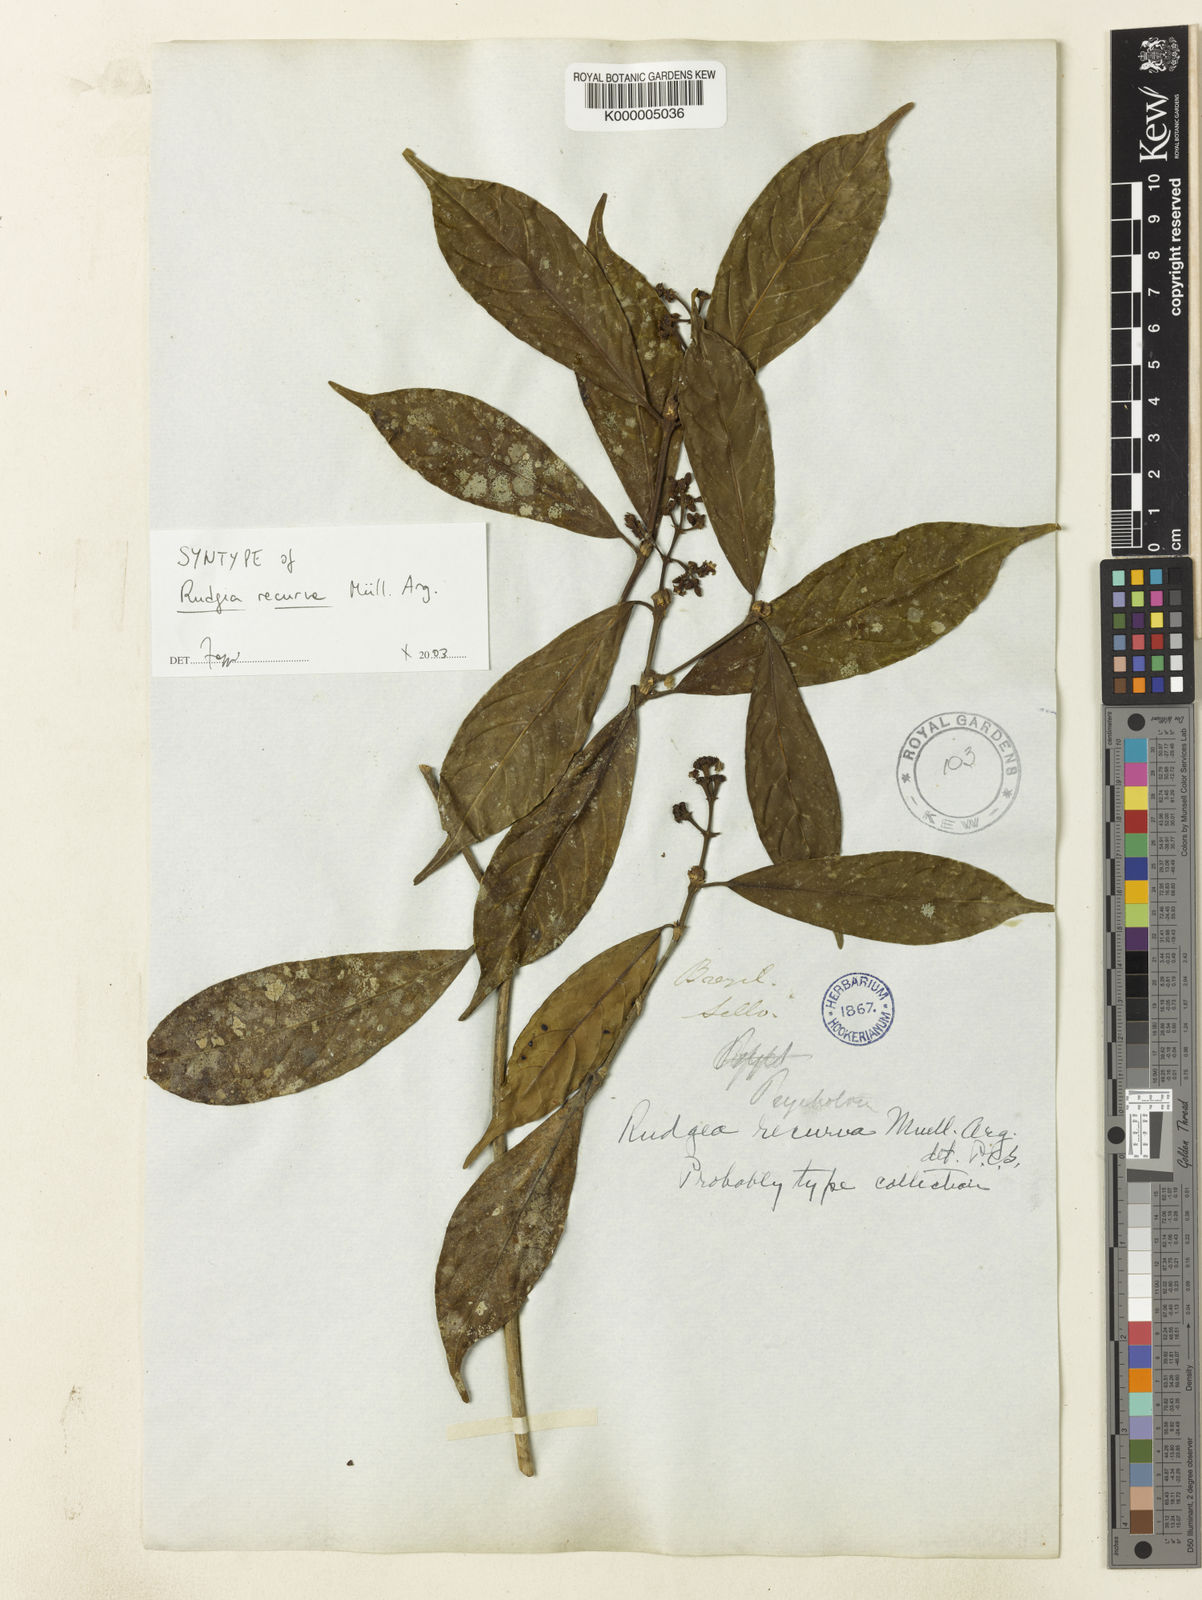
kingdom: Plantae
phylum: Tracheophyta
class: Magnoliopsida
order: Gentianales
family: Rubiaceae
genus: Rudgea
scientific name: Rudgea
